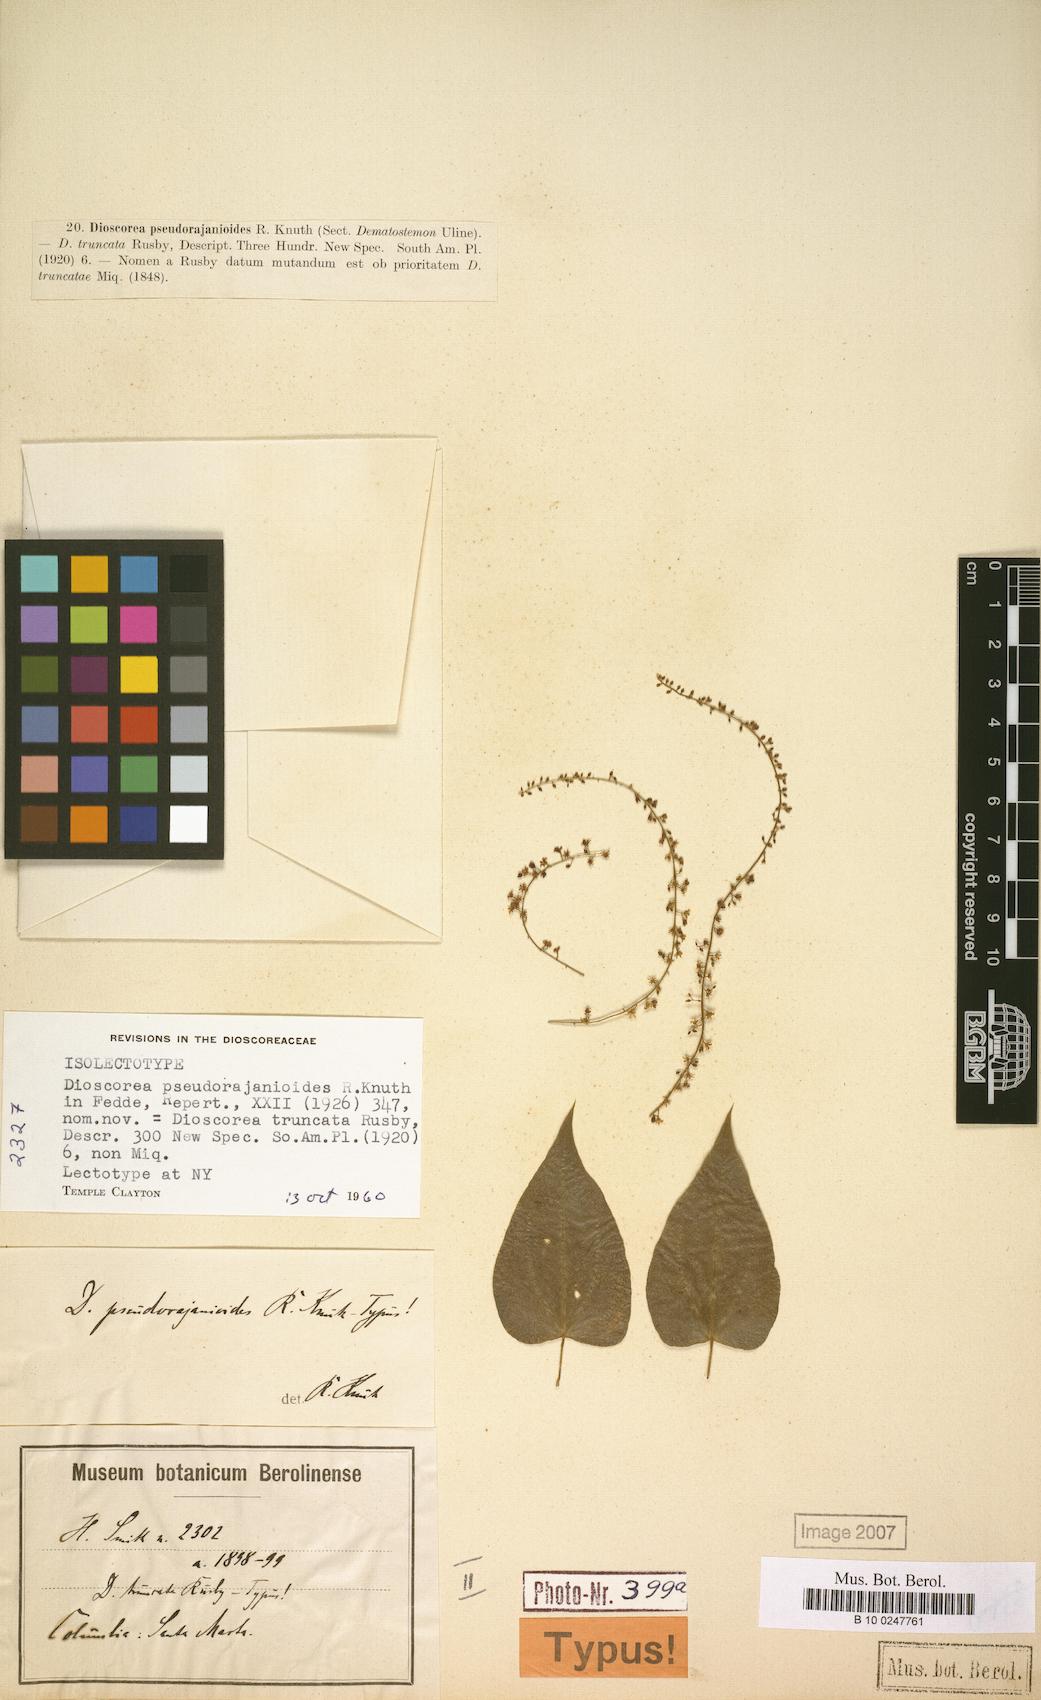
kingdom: Plantae
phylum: Tracheophyta
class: Liliopsida
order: Dioscoreales
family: Dioscoreaceae
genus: Dioscorea
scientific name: Dioscorea pseudorajanioides
